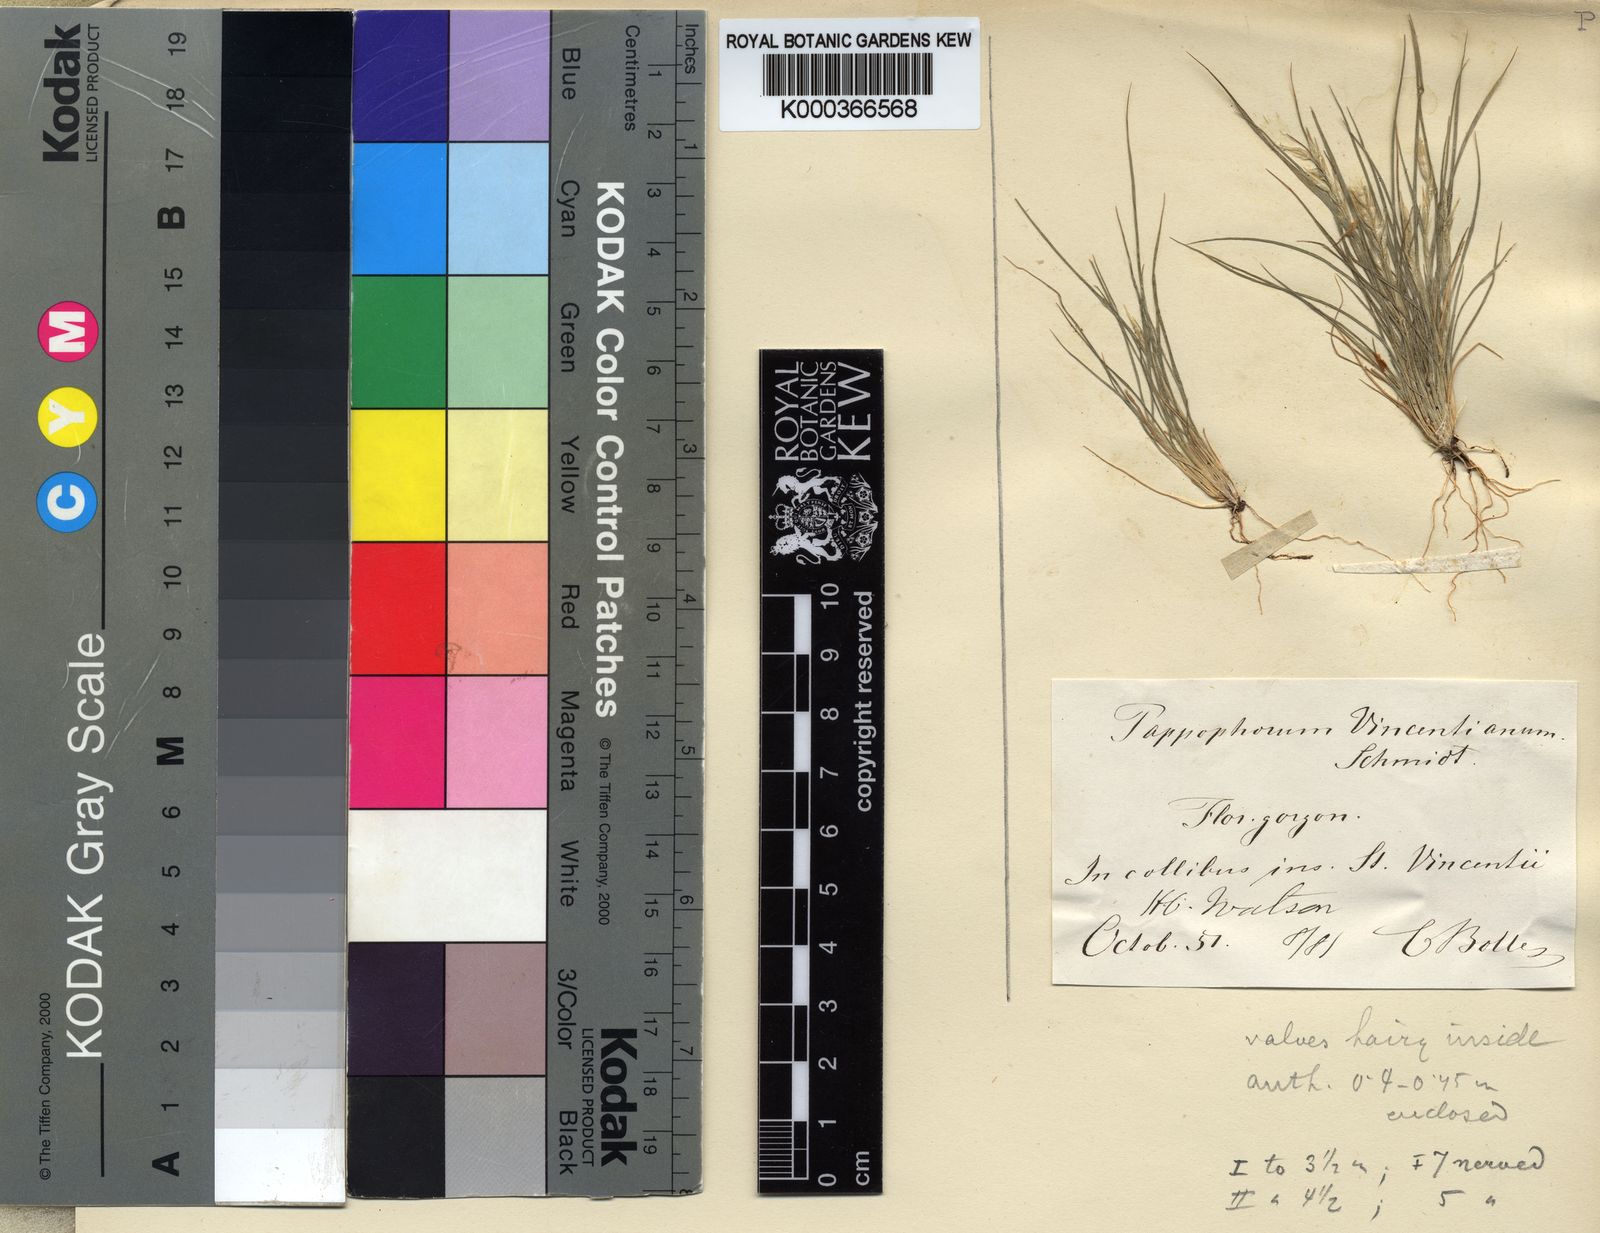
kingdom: Plantae
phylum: Tracheophyta
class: Liliopsida
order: Poales
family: Poaceae
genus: Enneapogon
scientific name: Enneapogon desvauxii
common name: Feather pappus grass
